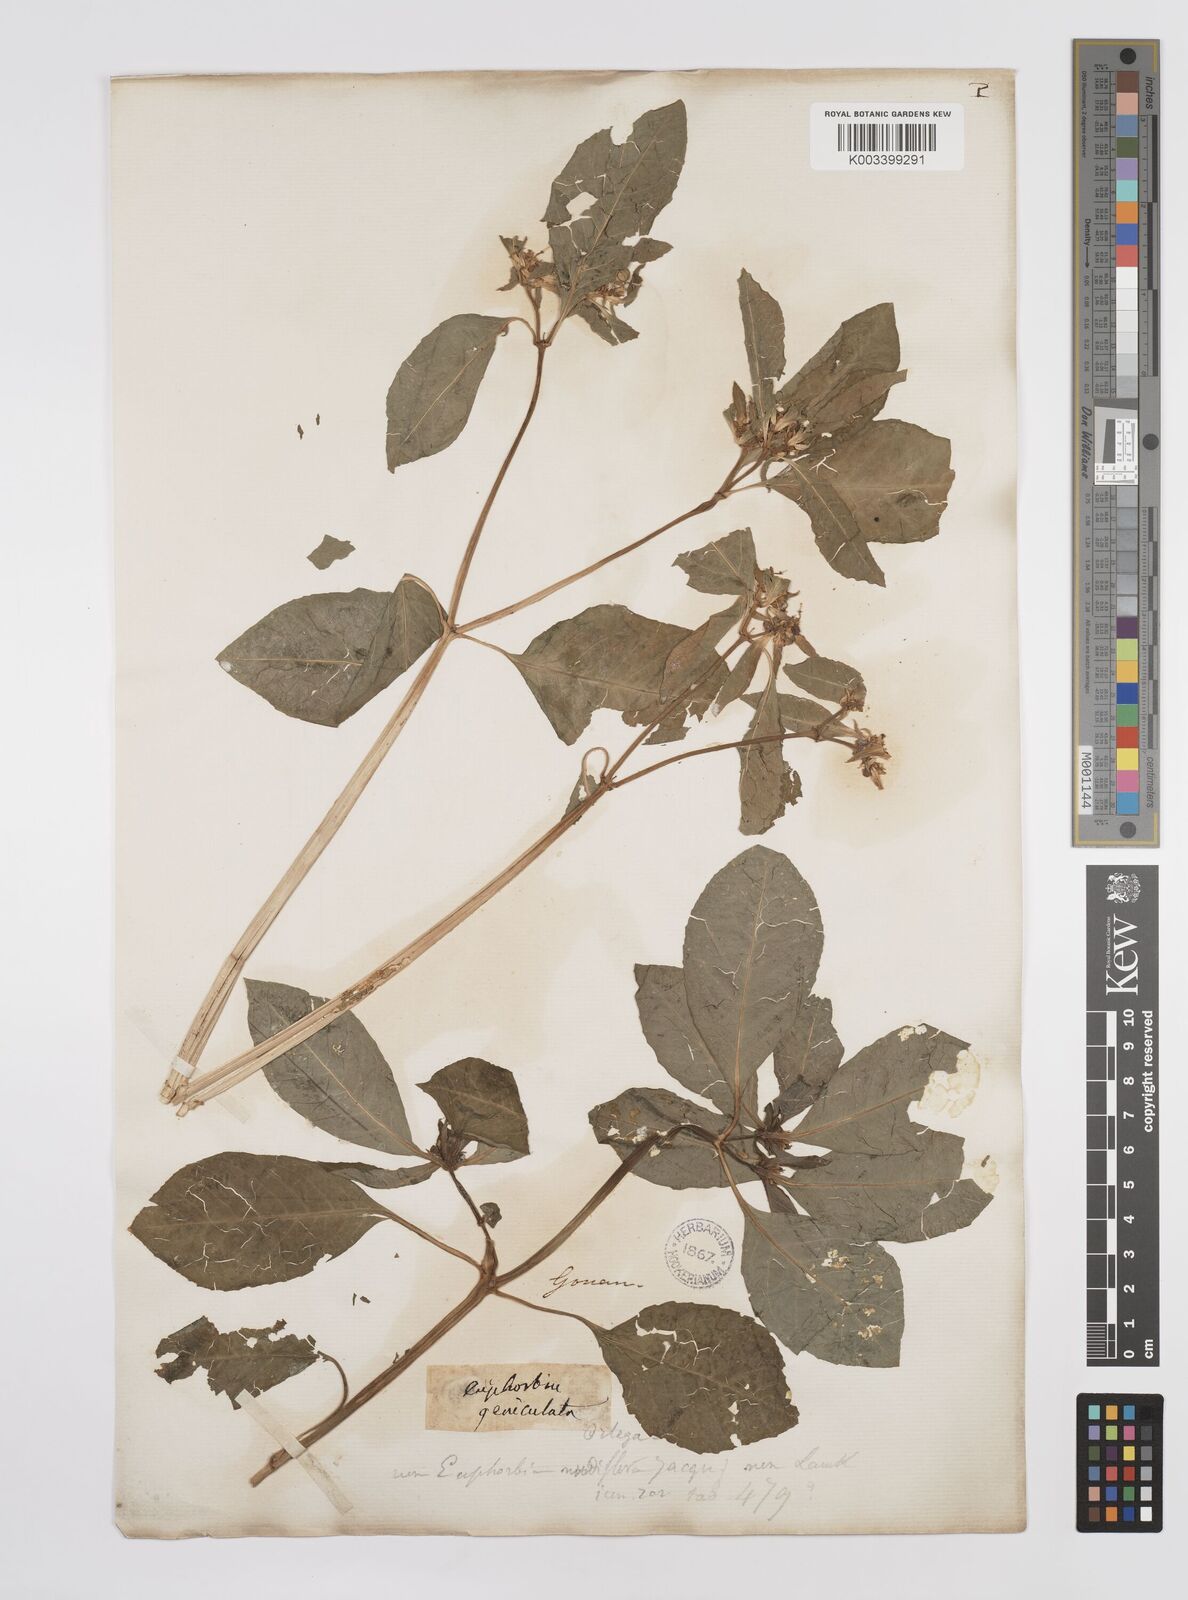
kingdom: Plantae
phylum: Tracheophyta
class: Magnoliopsida
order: Malpighiales
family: Euphorbiaceae
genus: Euphorbia
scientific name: Euphorbia heterophylla
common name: Mexican fireplant
